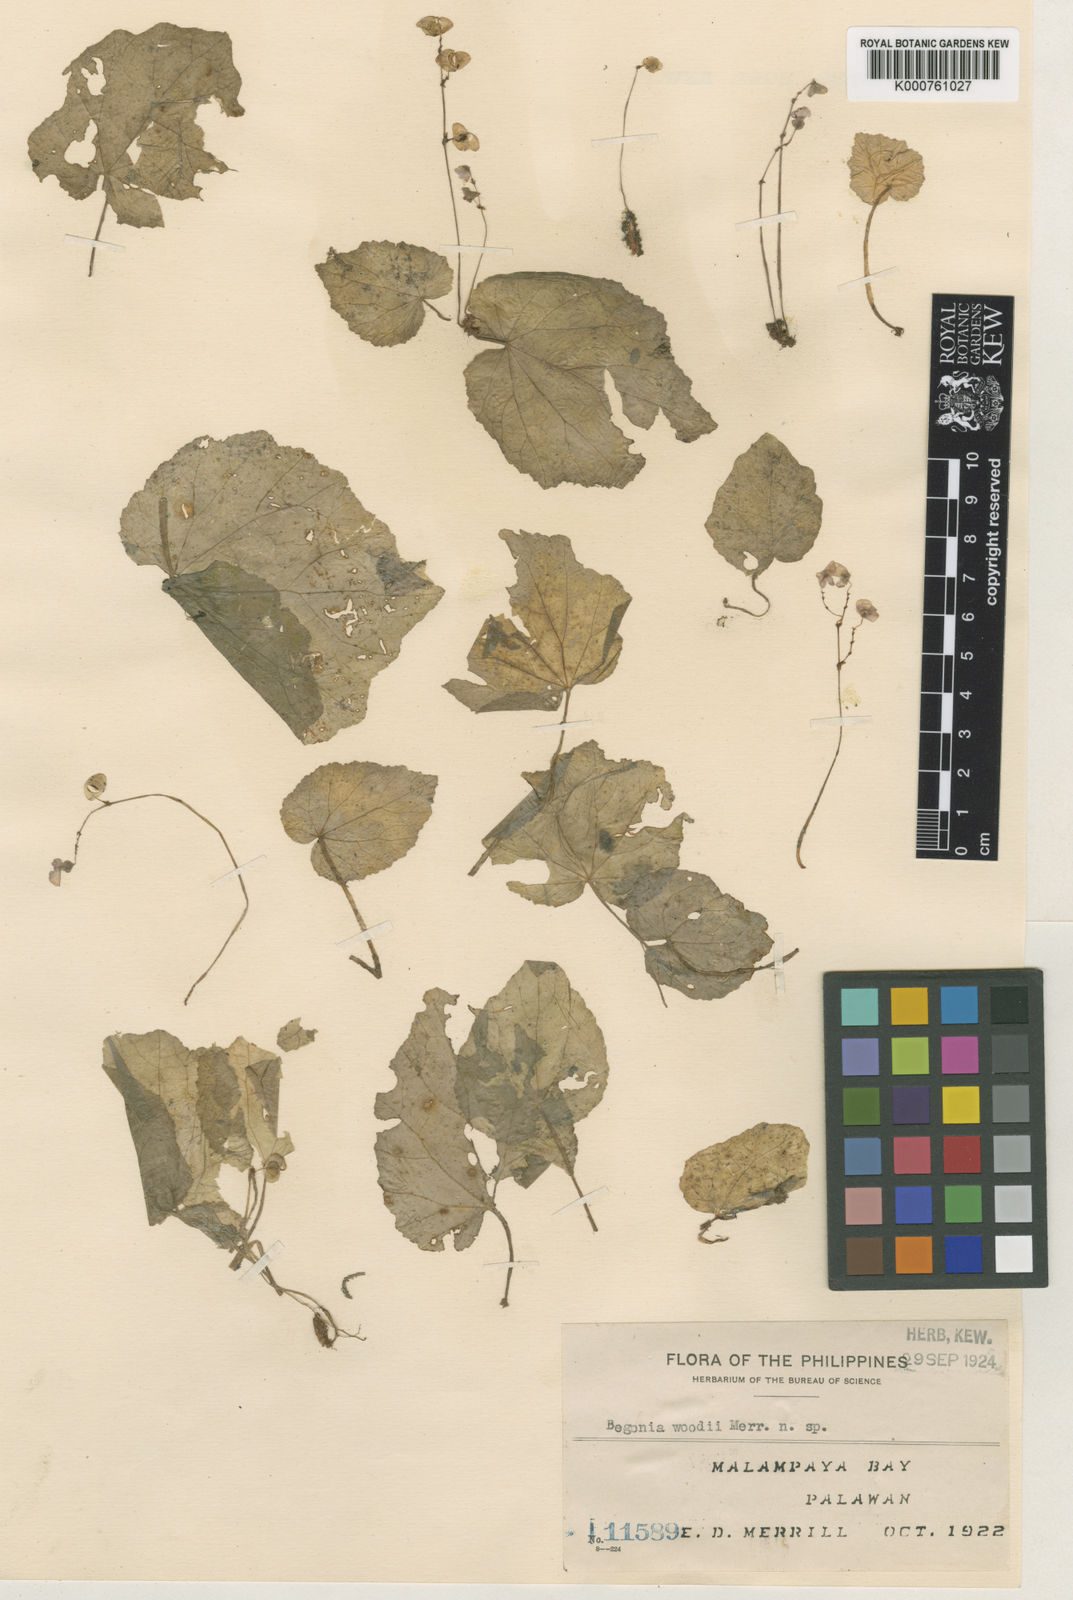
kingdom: Plantae
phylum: Tracheophyta
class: Magnoliopsida
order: Cucurbitales
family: Begoniaceae
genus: Begonia
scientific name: Begonia woodii
